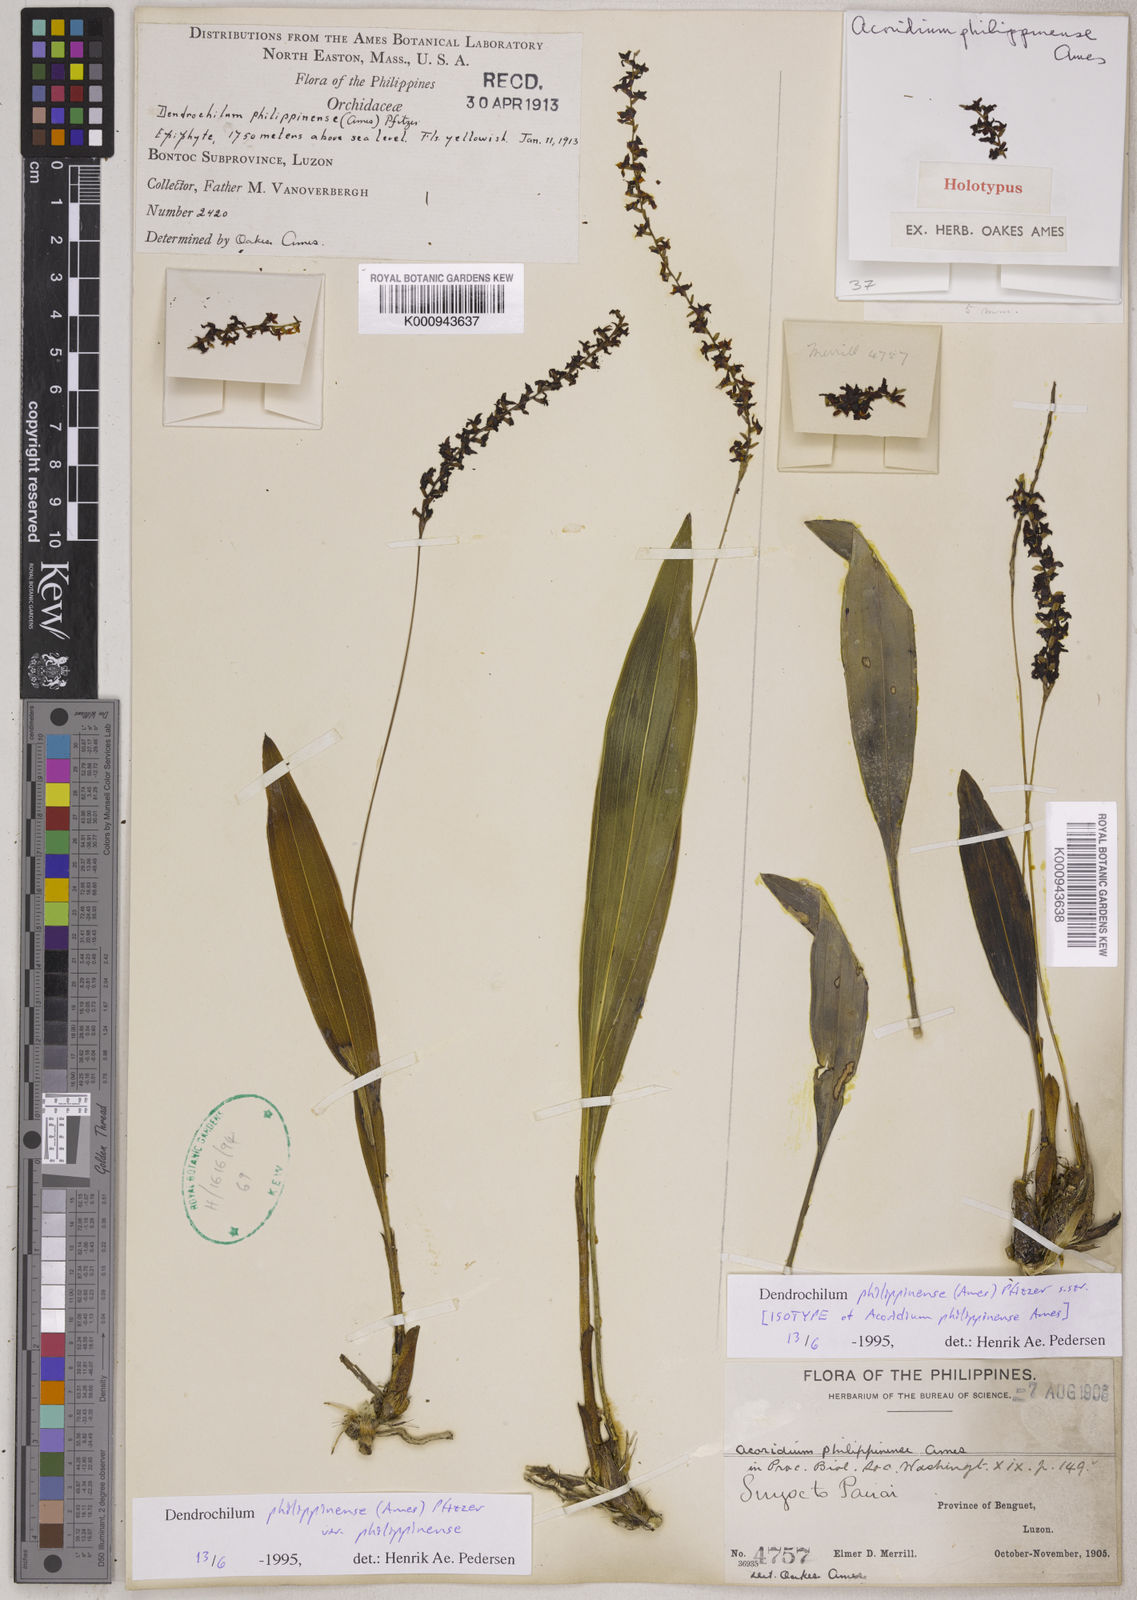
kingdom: Plantae
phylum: Tracheophyta
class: Liliopsida
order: Asparagales
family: Orchidaceae
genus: Coelogyne
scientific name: Coelogyne philippinensis
